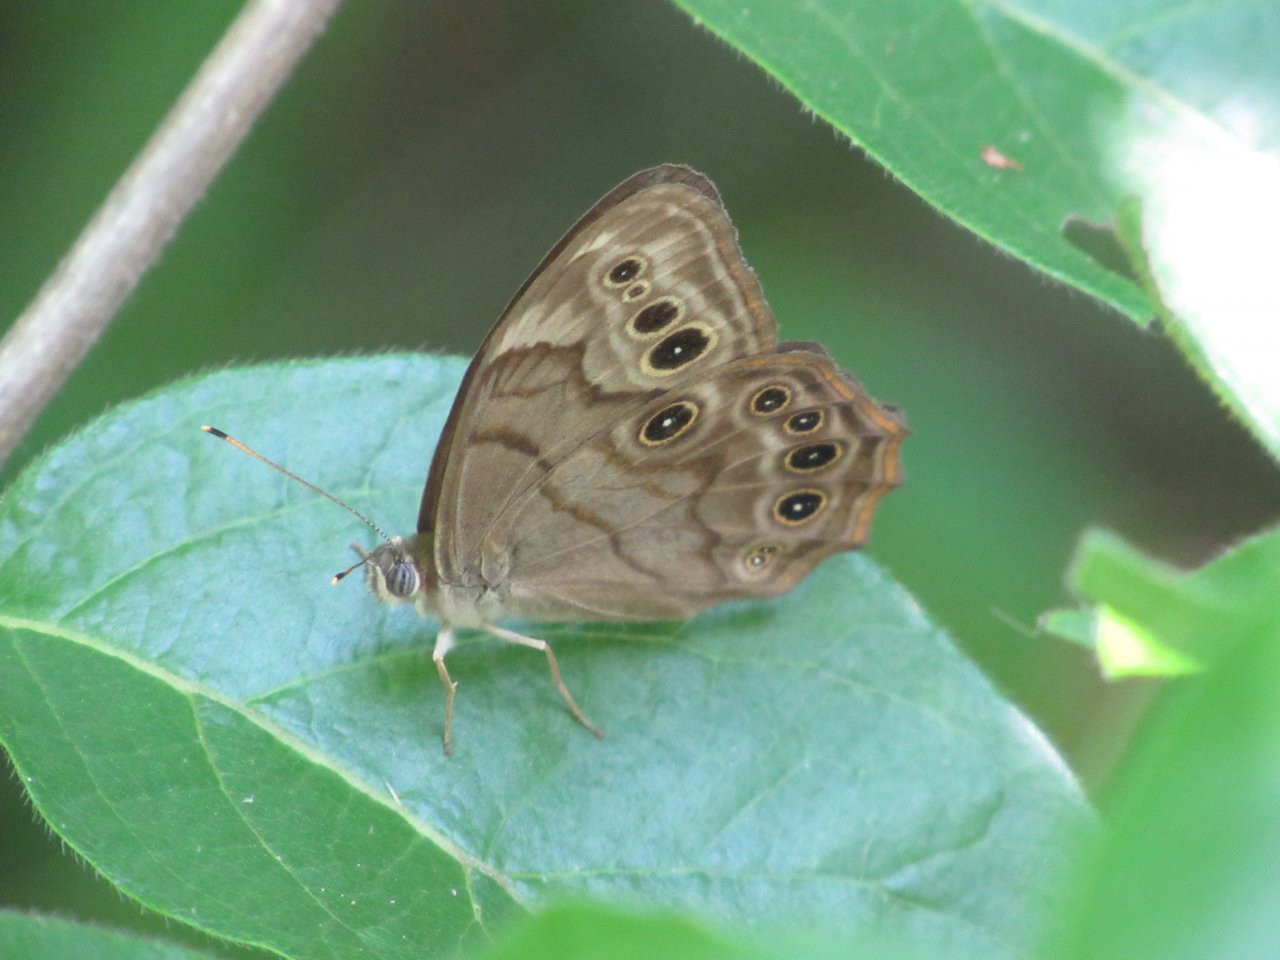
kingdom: Animalia
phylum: Arthropoda
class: Insecta
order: Lepidoptera
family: Nymphalidae
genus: Lethe
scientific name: Lethe anthedon
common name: Northern Pearly-Eye
